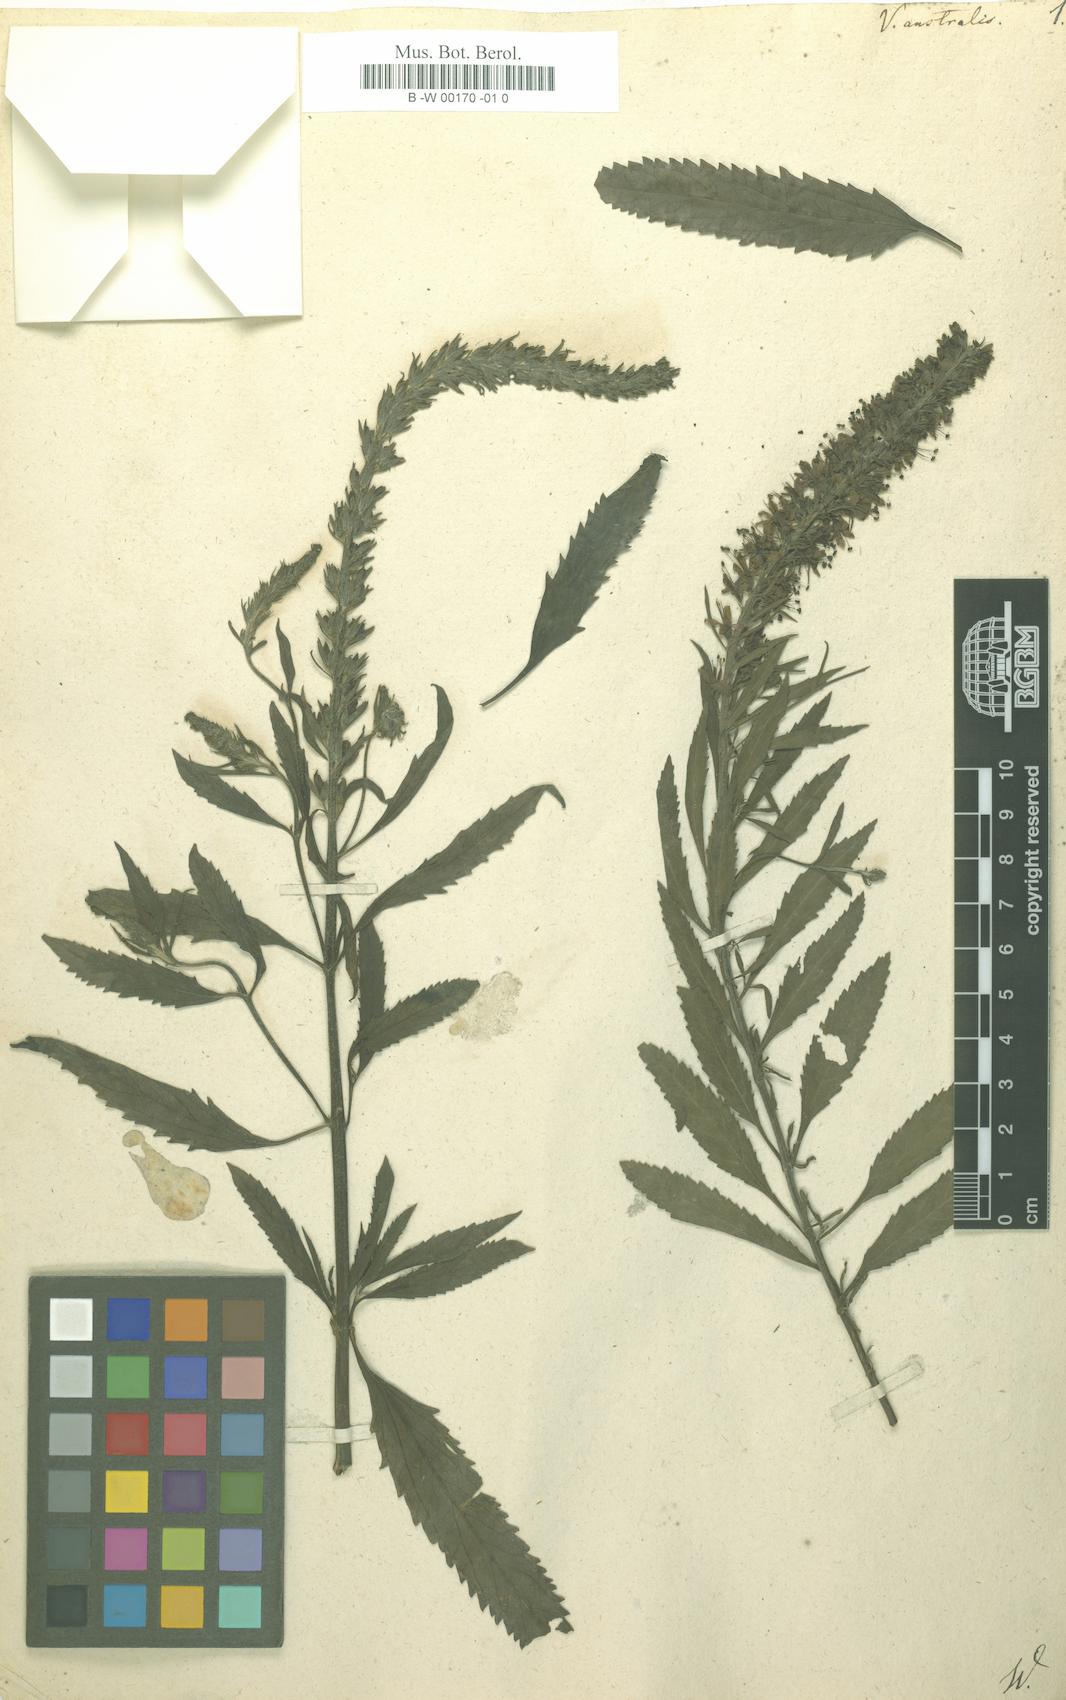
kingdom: Plantae
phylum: Tracheophyta
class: Magnoliopsida
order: Lamiales
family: Plantaginaceae
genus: Veronica
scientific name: Veronica spicata
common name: Spiked speedwell
